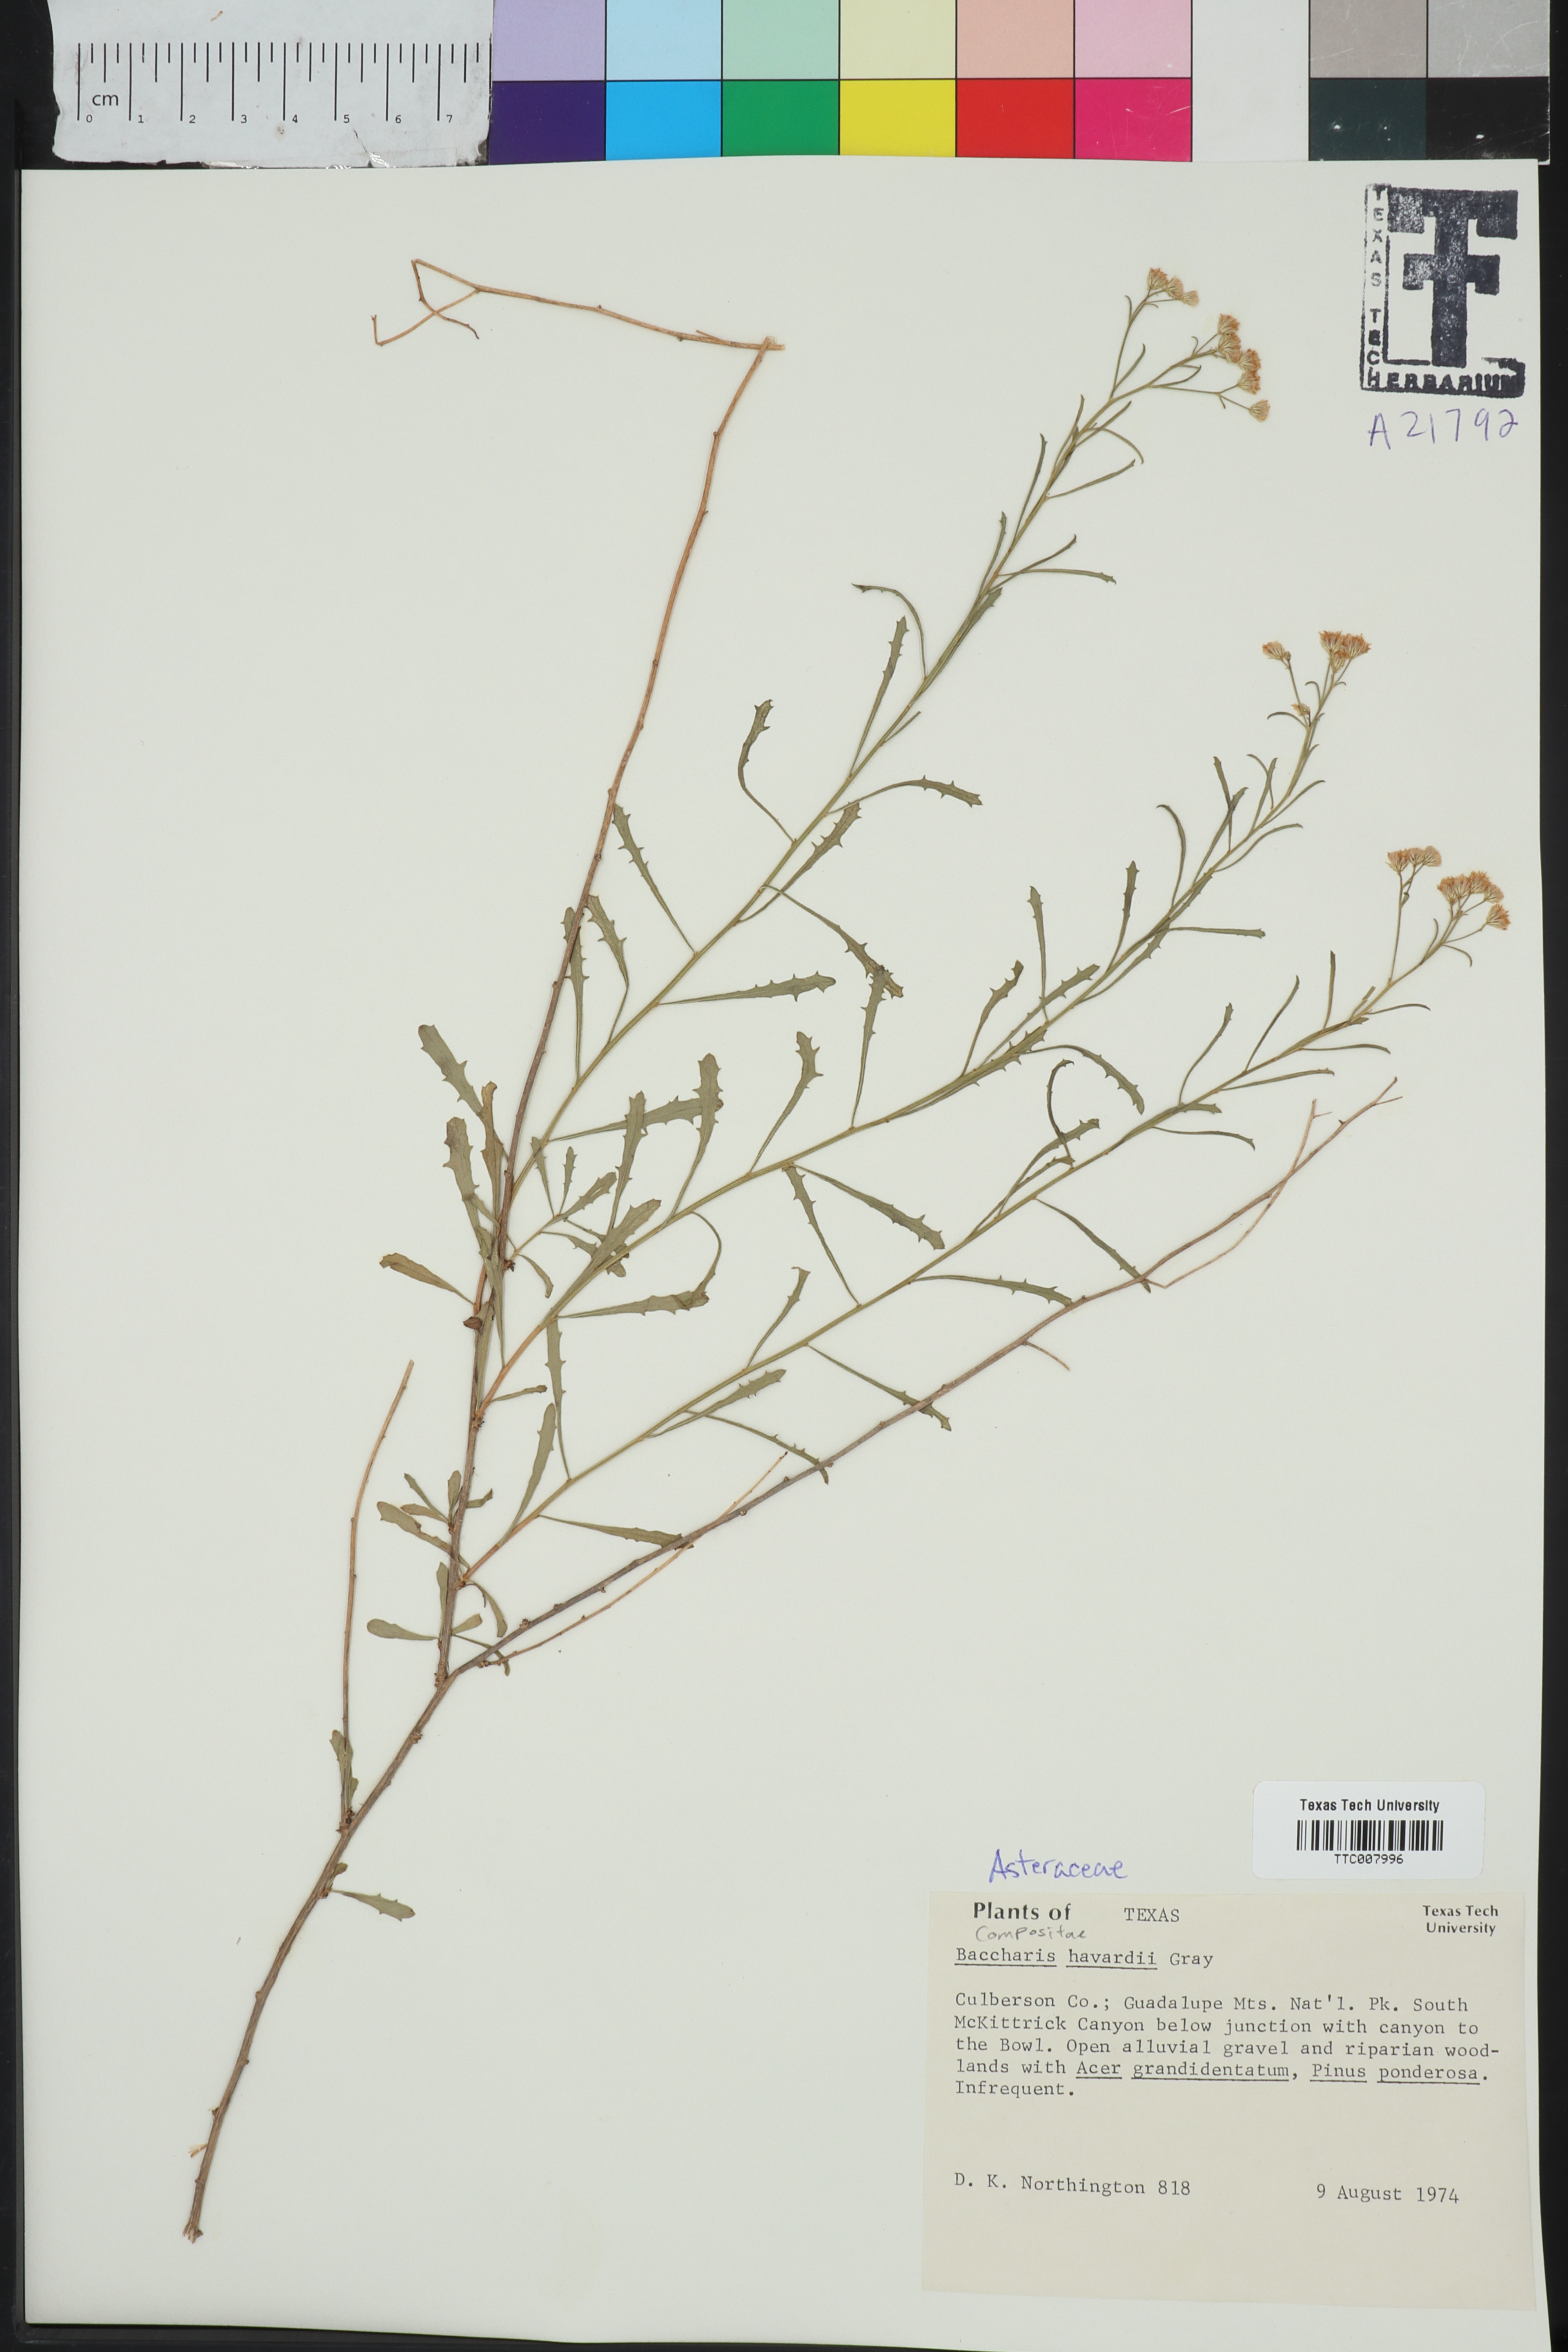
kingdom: Plantae
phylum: Tracheophyta
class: Magnoliopsida
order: Asterales
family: Asteraceae
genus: Baccharis
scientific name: Baccharis havardii
